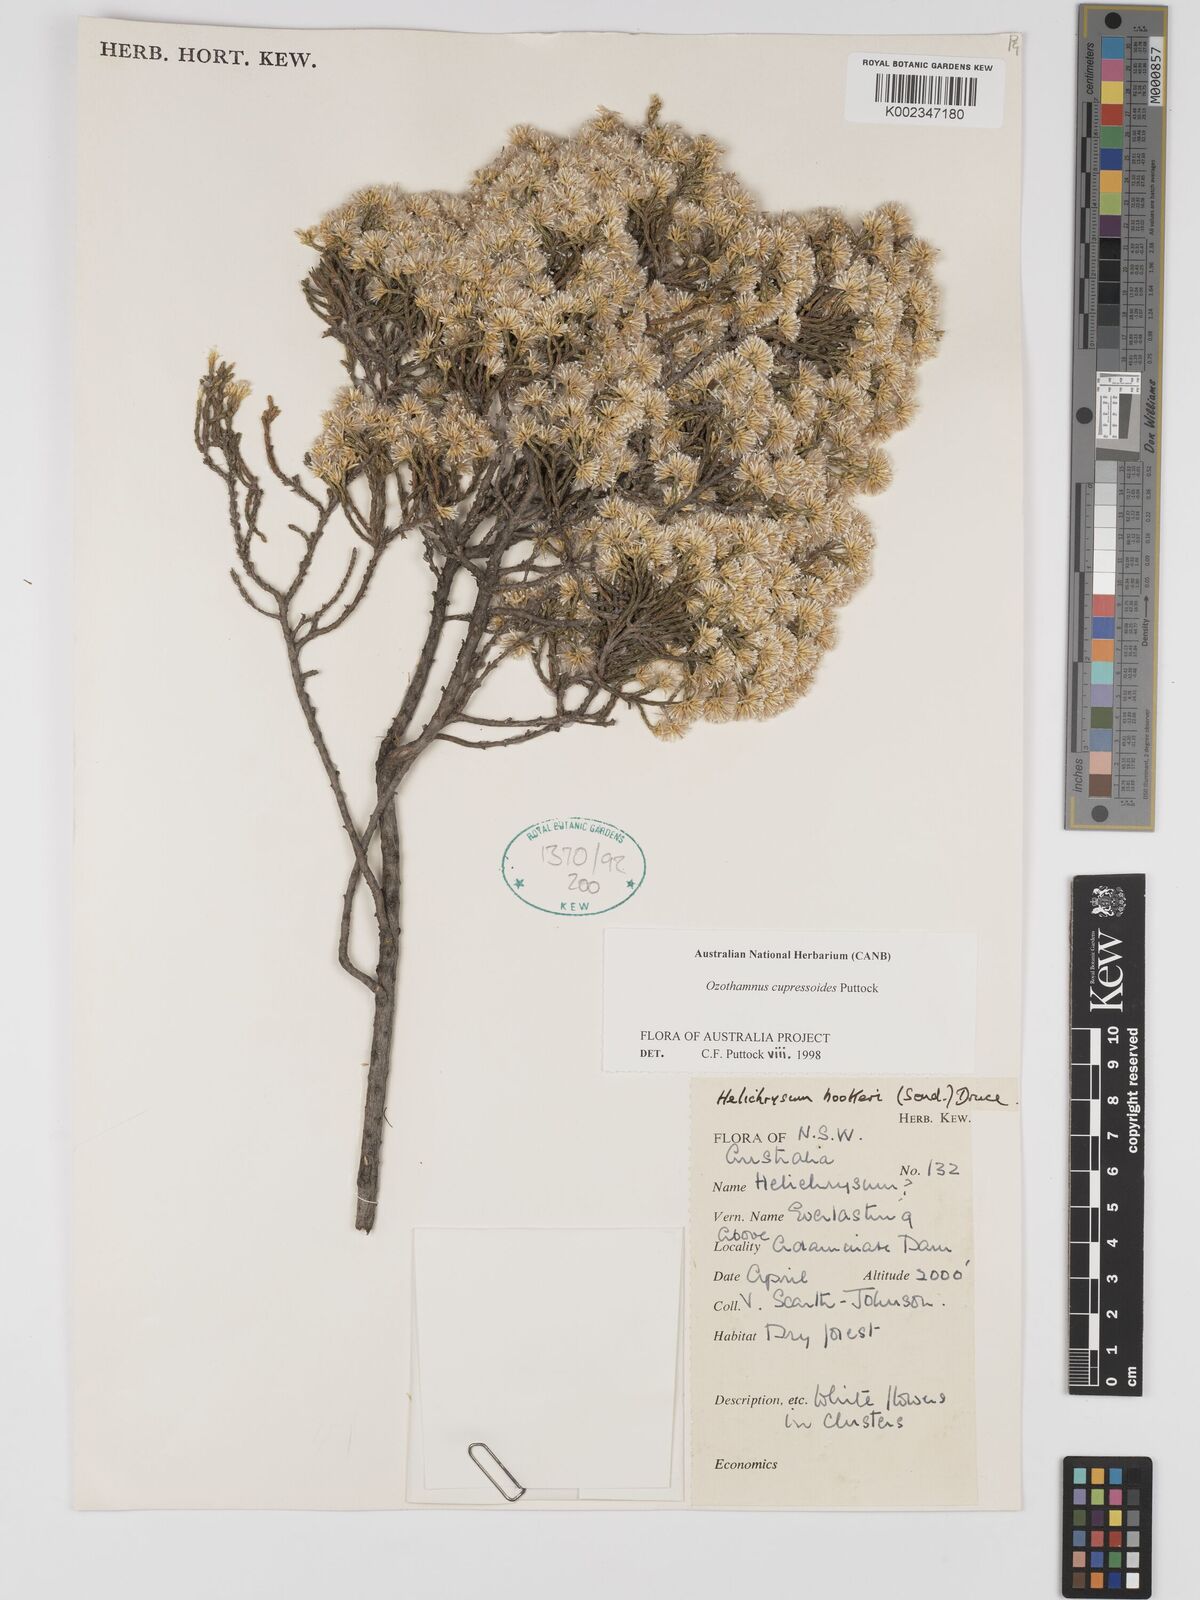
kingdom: Plantae
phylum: Tracheophyta
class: Magnoliopsida
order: Asterales
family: Asteraceae
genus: Ozothamnus
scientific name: Ozothamnus cupressoides
